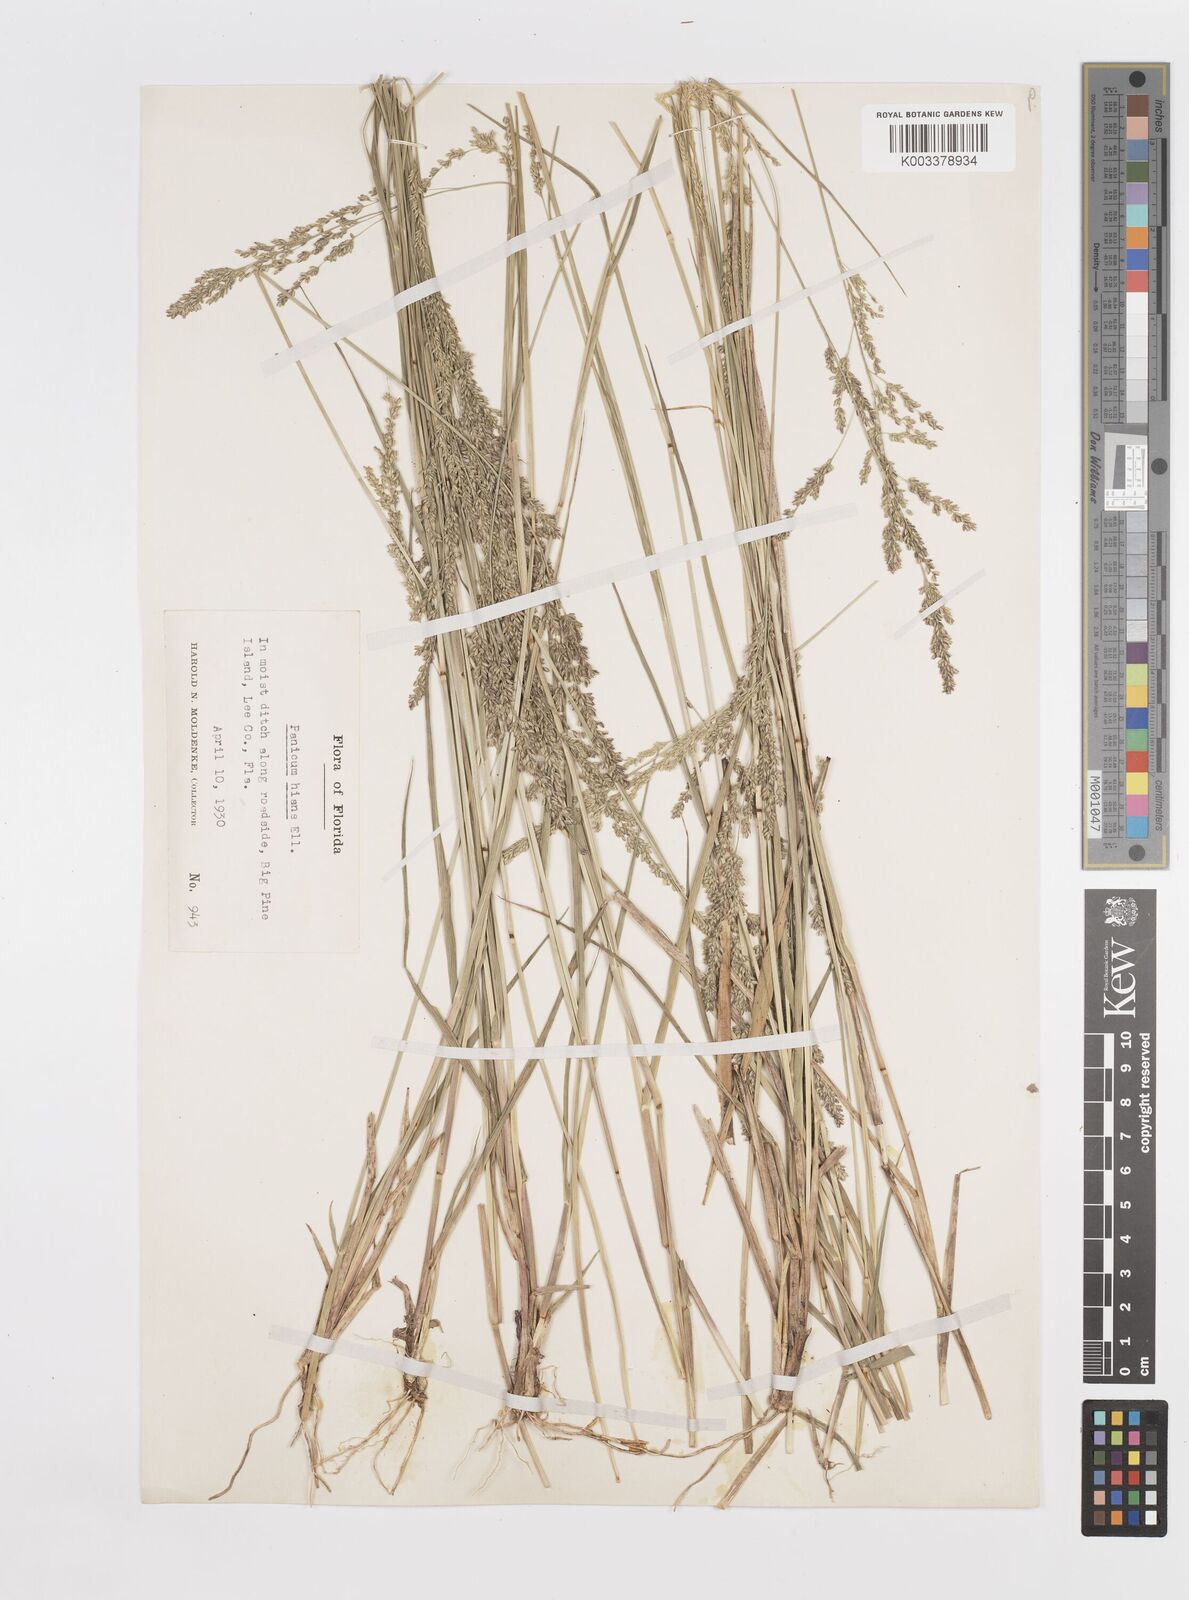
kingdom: Plantae
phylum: Tracheophyta
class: Liliopsida
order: Poales
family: Poaceae
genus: Steinchisma
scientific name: Steinchisma hians
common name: Gaping panic grass
